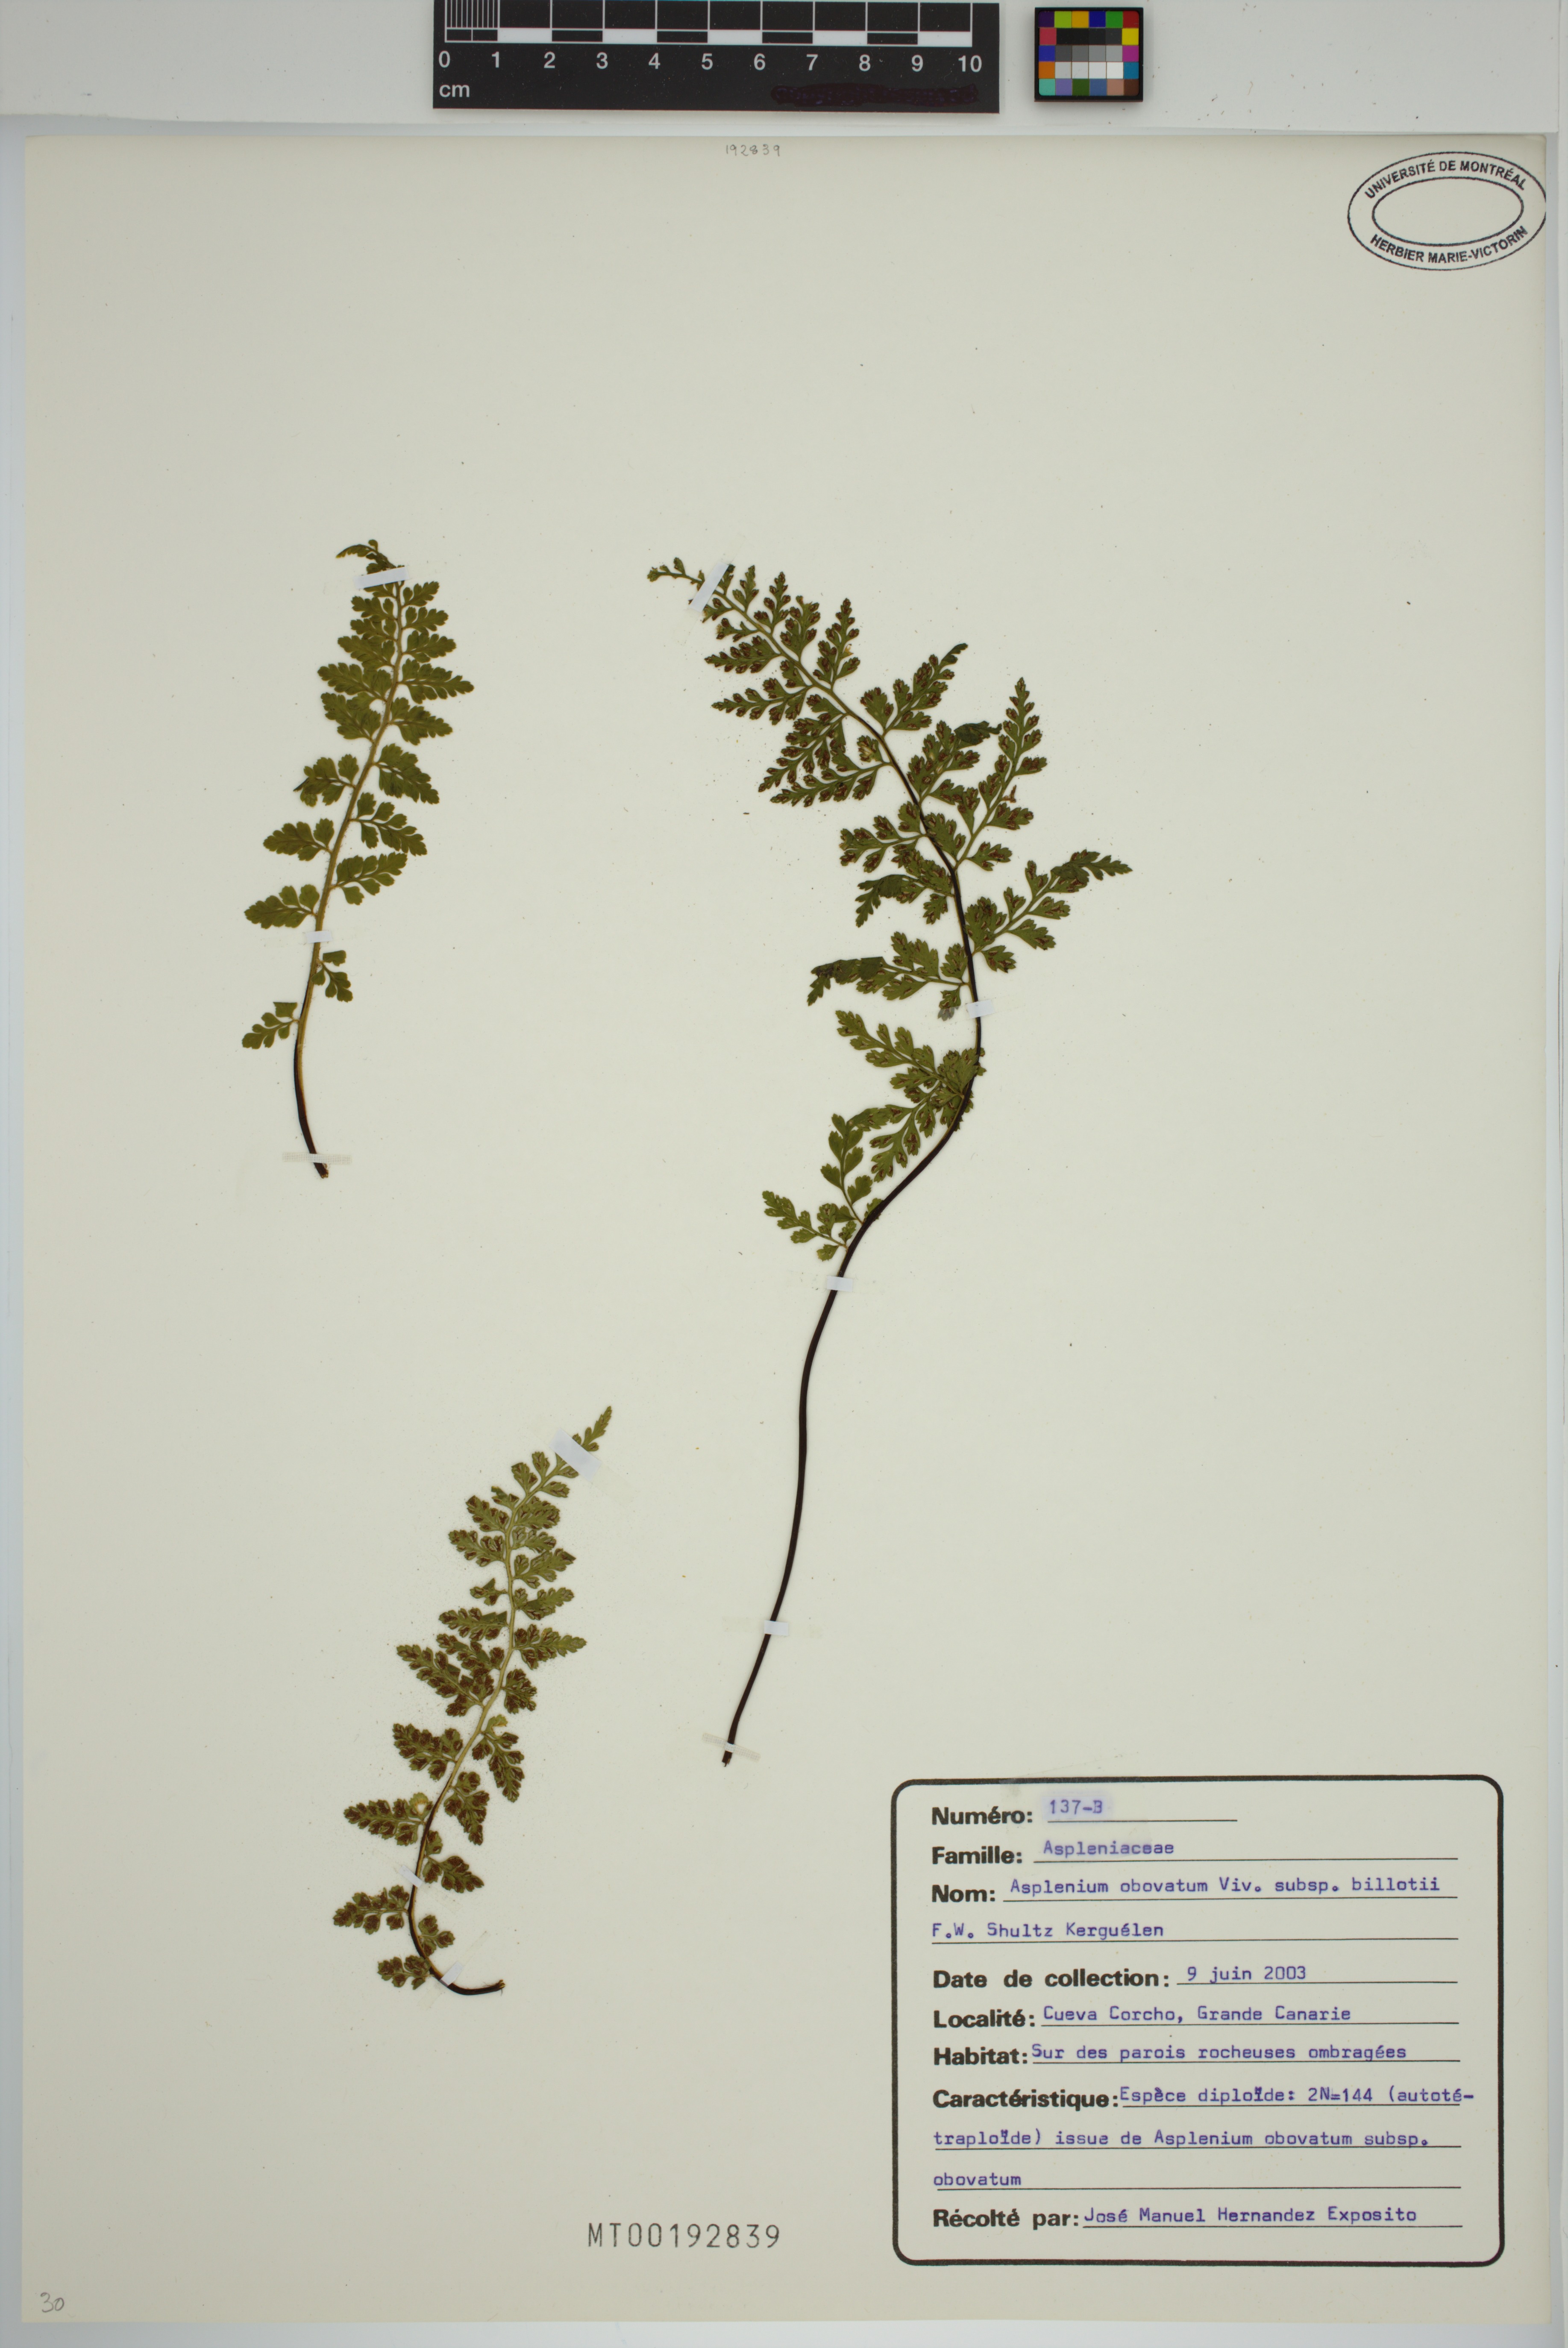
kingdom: Plantae
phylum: Tracheophyta
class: Polypodiopsida
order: Polypodiales
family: Aspleniaceae
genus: Asplenium
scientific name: Asplenium obovatum
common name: Lanceolate spleenwort
